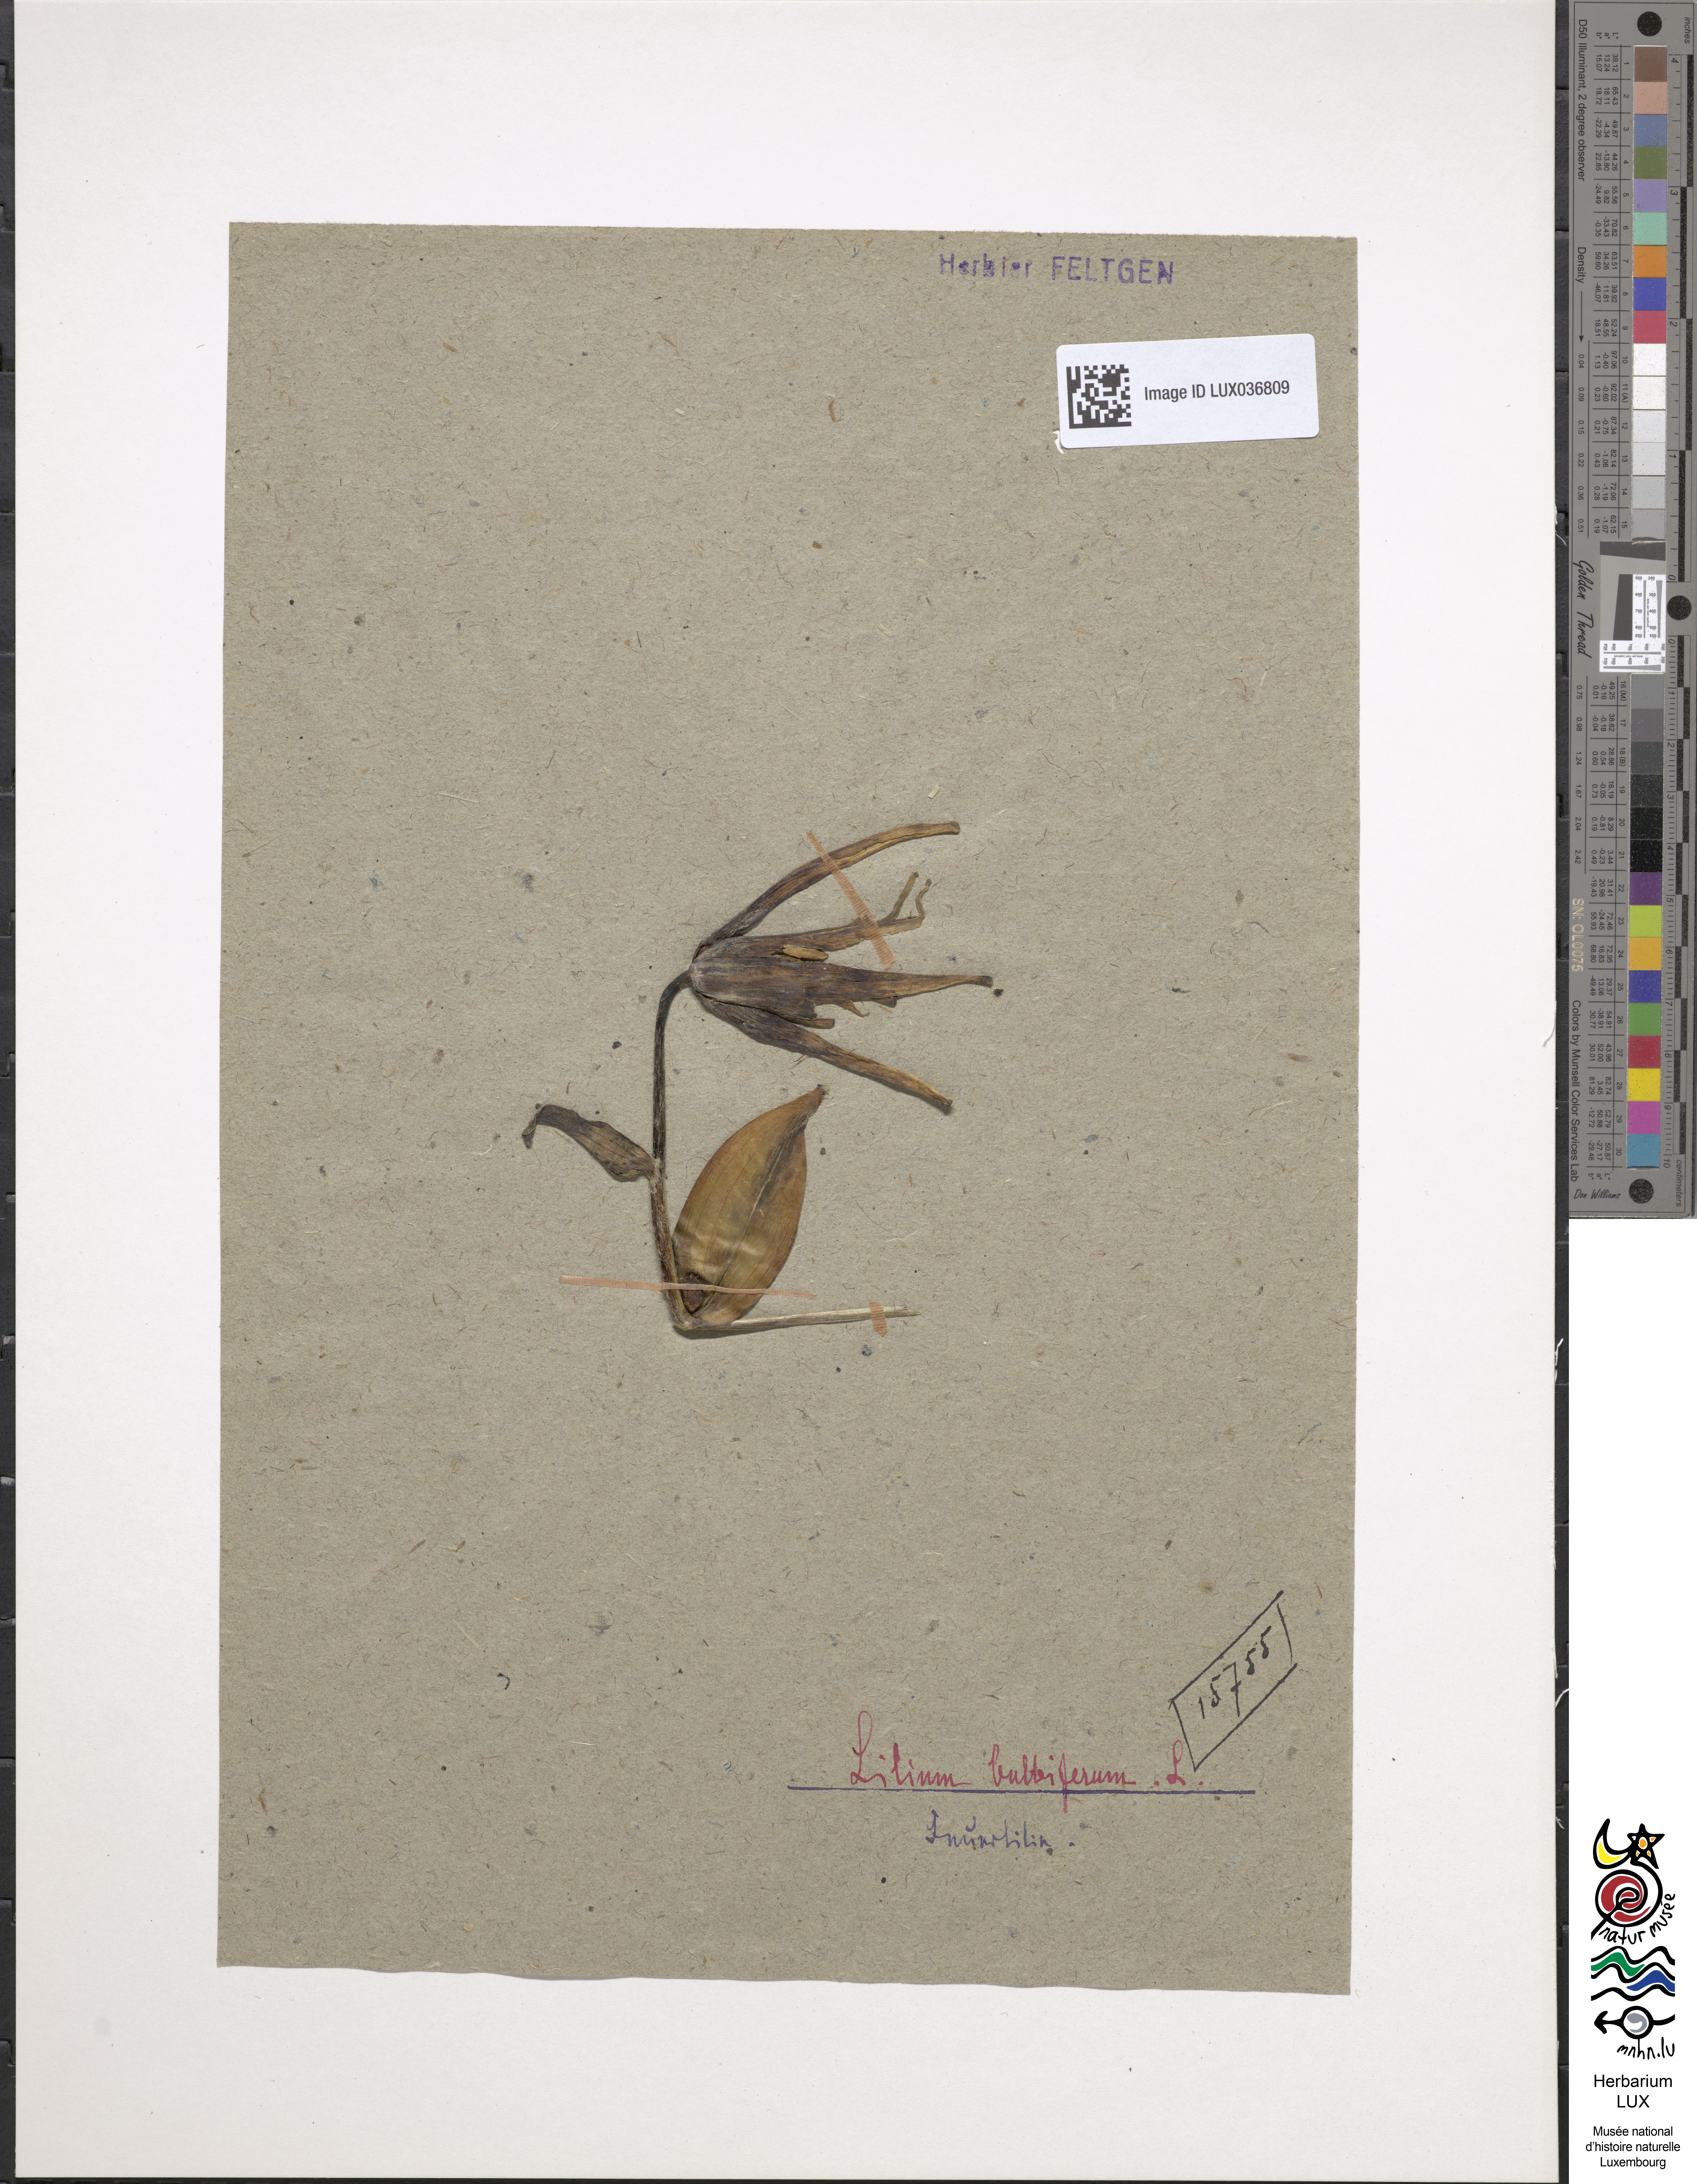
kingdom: Plantae
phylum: Tracheophyta
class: Liliopsida
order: Liliales
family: Liliaceae
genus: Lilium
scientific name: Lilium bulbiferum
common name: Orange lily
